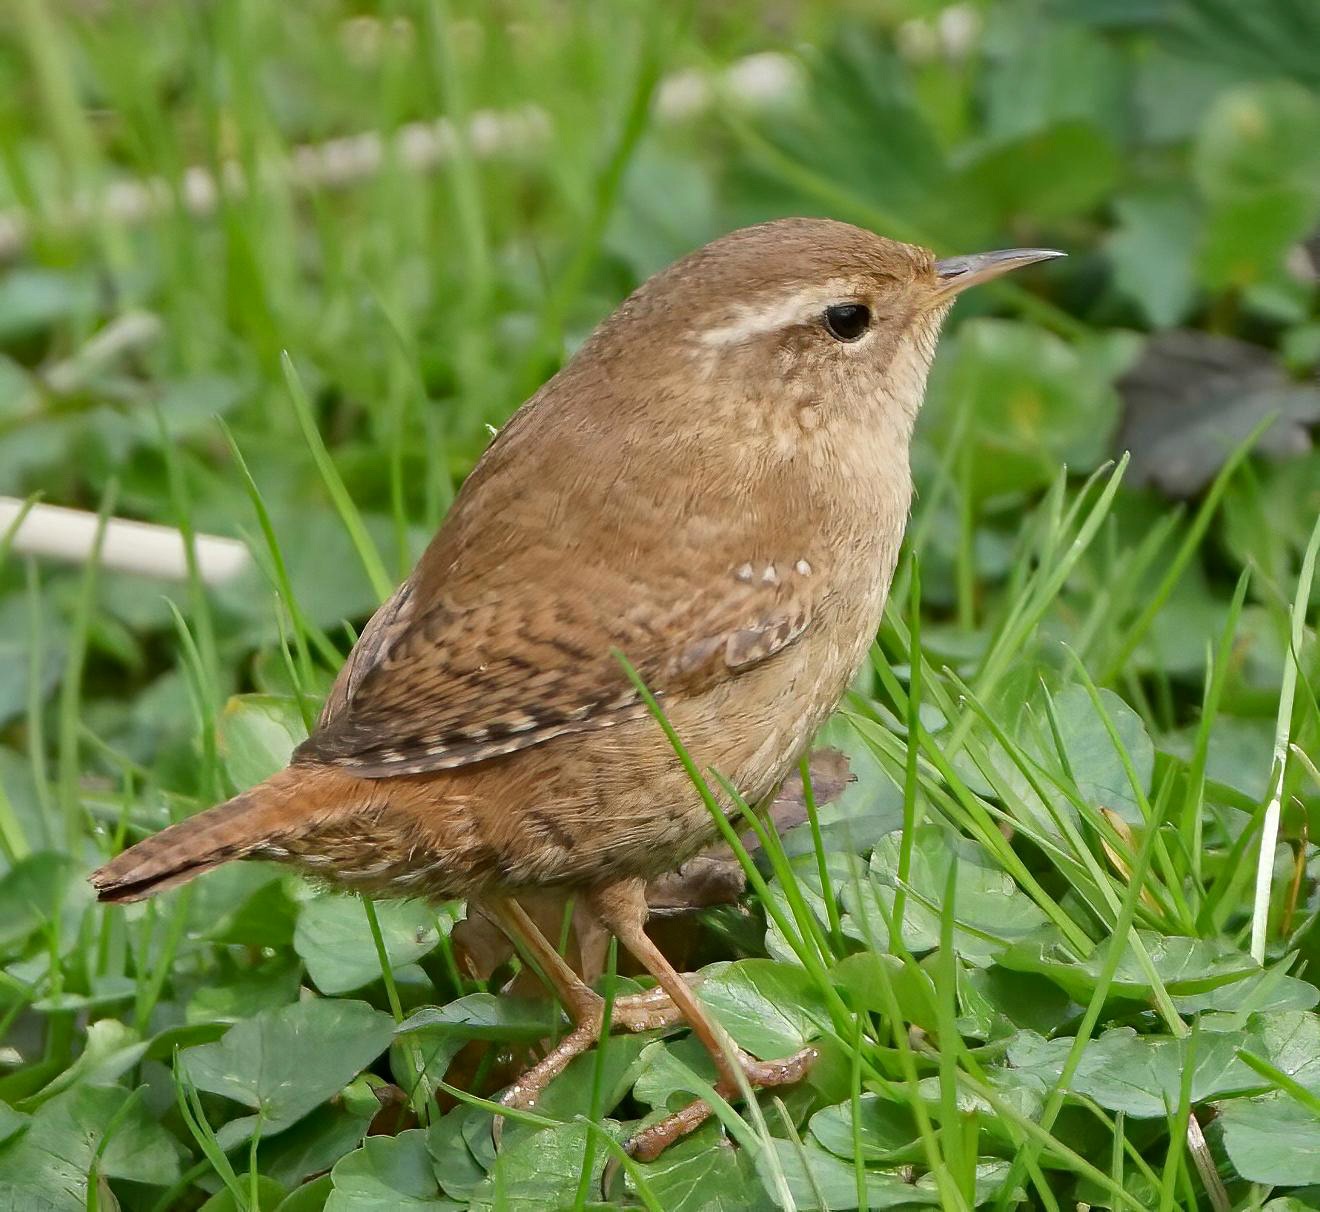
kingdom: Animalia
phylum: Chordata
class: Aves
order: Passeriformes
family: Troglodytidae
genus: Troglodytes
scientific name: Troglodytes troglodytes
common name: Gærdesmutte
